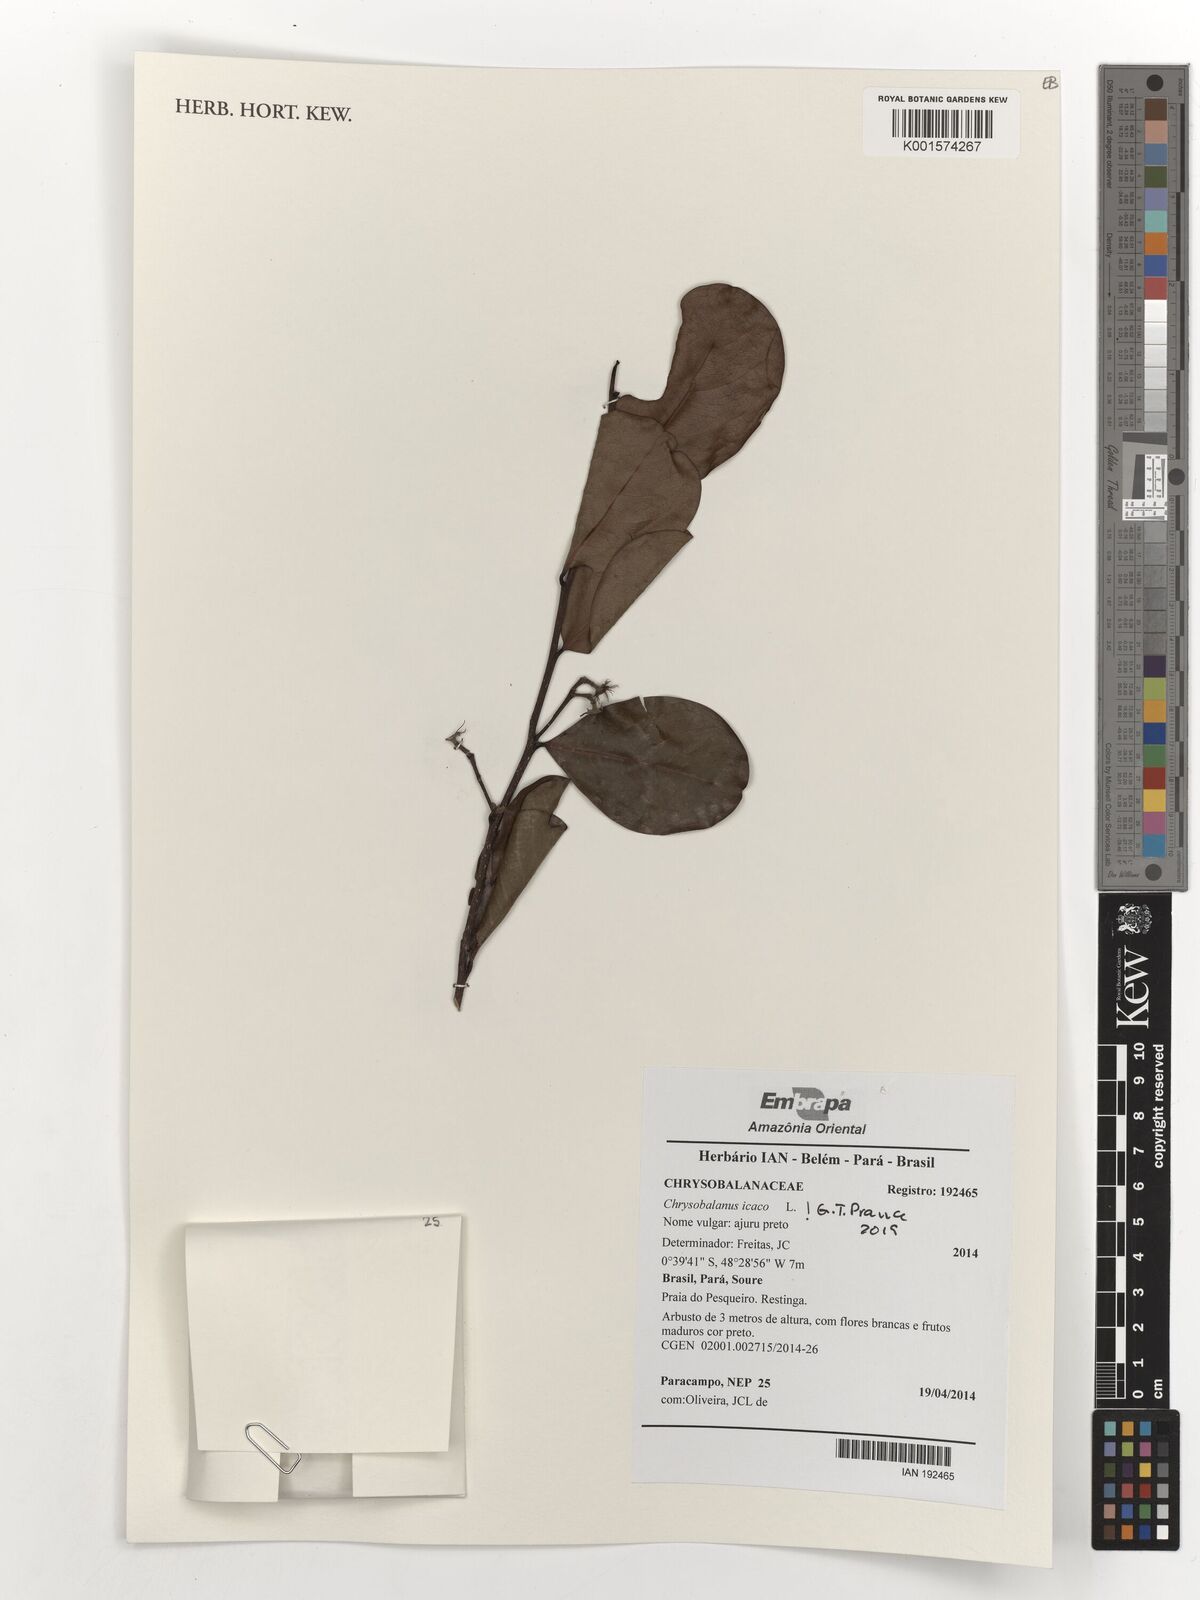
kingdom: Plantae
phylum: Tracheophyta
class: Magnoliopsida
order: Malpighiales
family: Chrysobalanaceae
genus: Chrysobalanus
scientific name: Chrysobalanus icaco
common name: Coco plum
